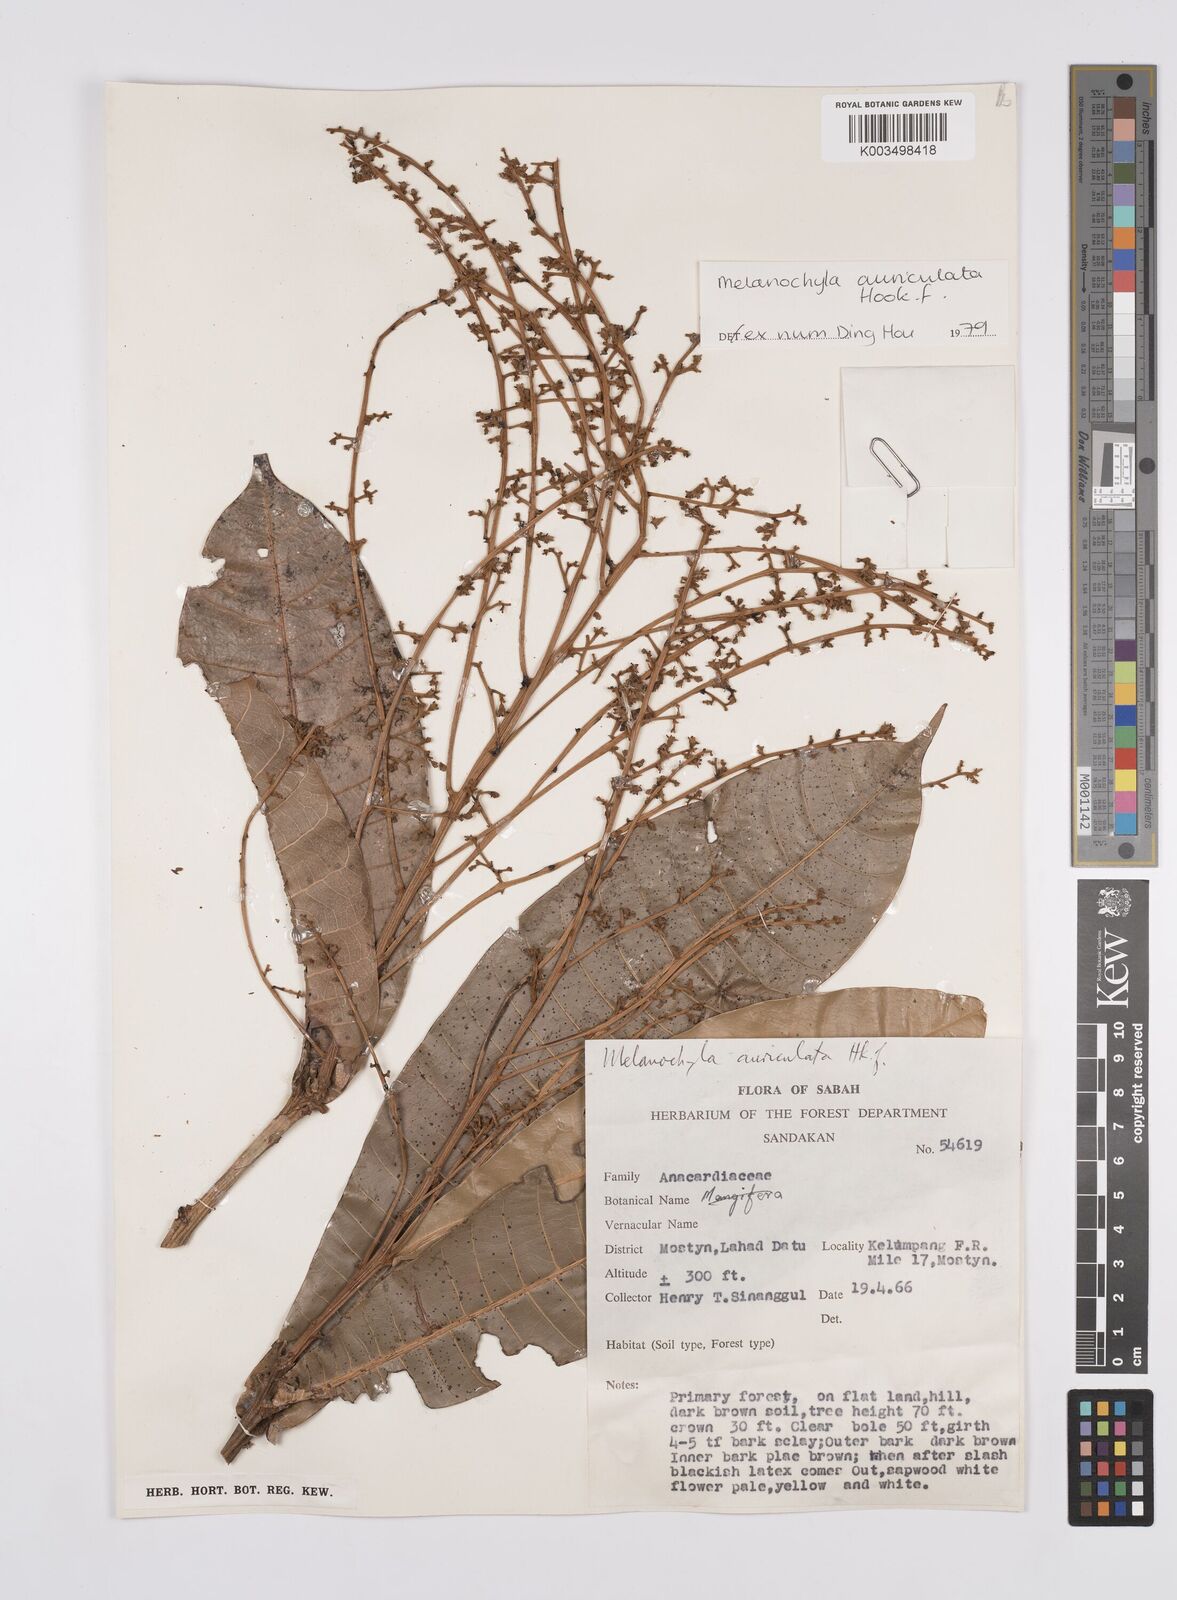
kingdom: Plantae
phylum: Tracheophyta
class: Magnoliopsida
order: Sapindales
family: Anacardiaceae
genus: Melanochyla
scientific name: Melanochyla auriculata
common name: Swamp rengas
